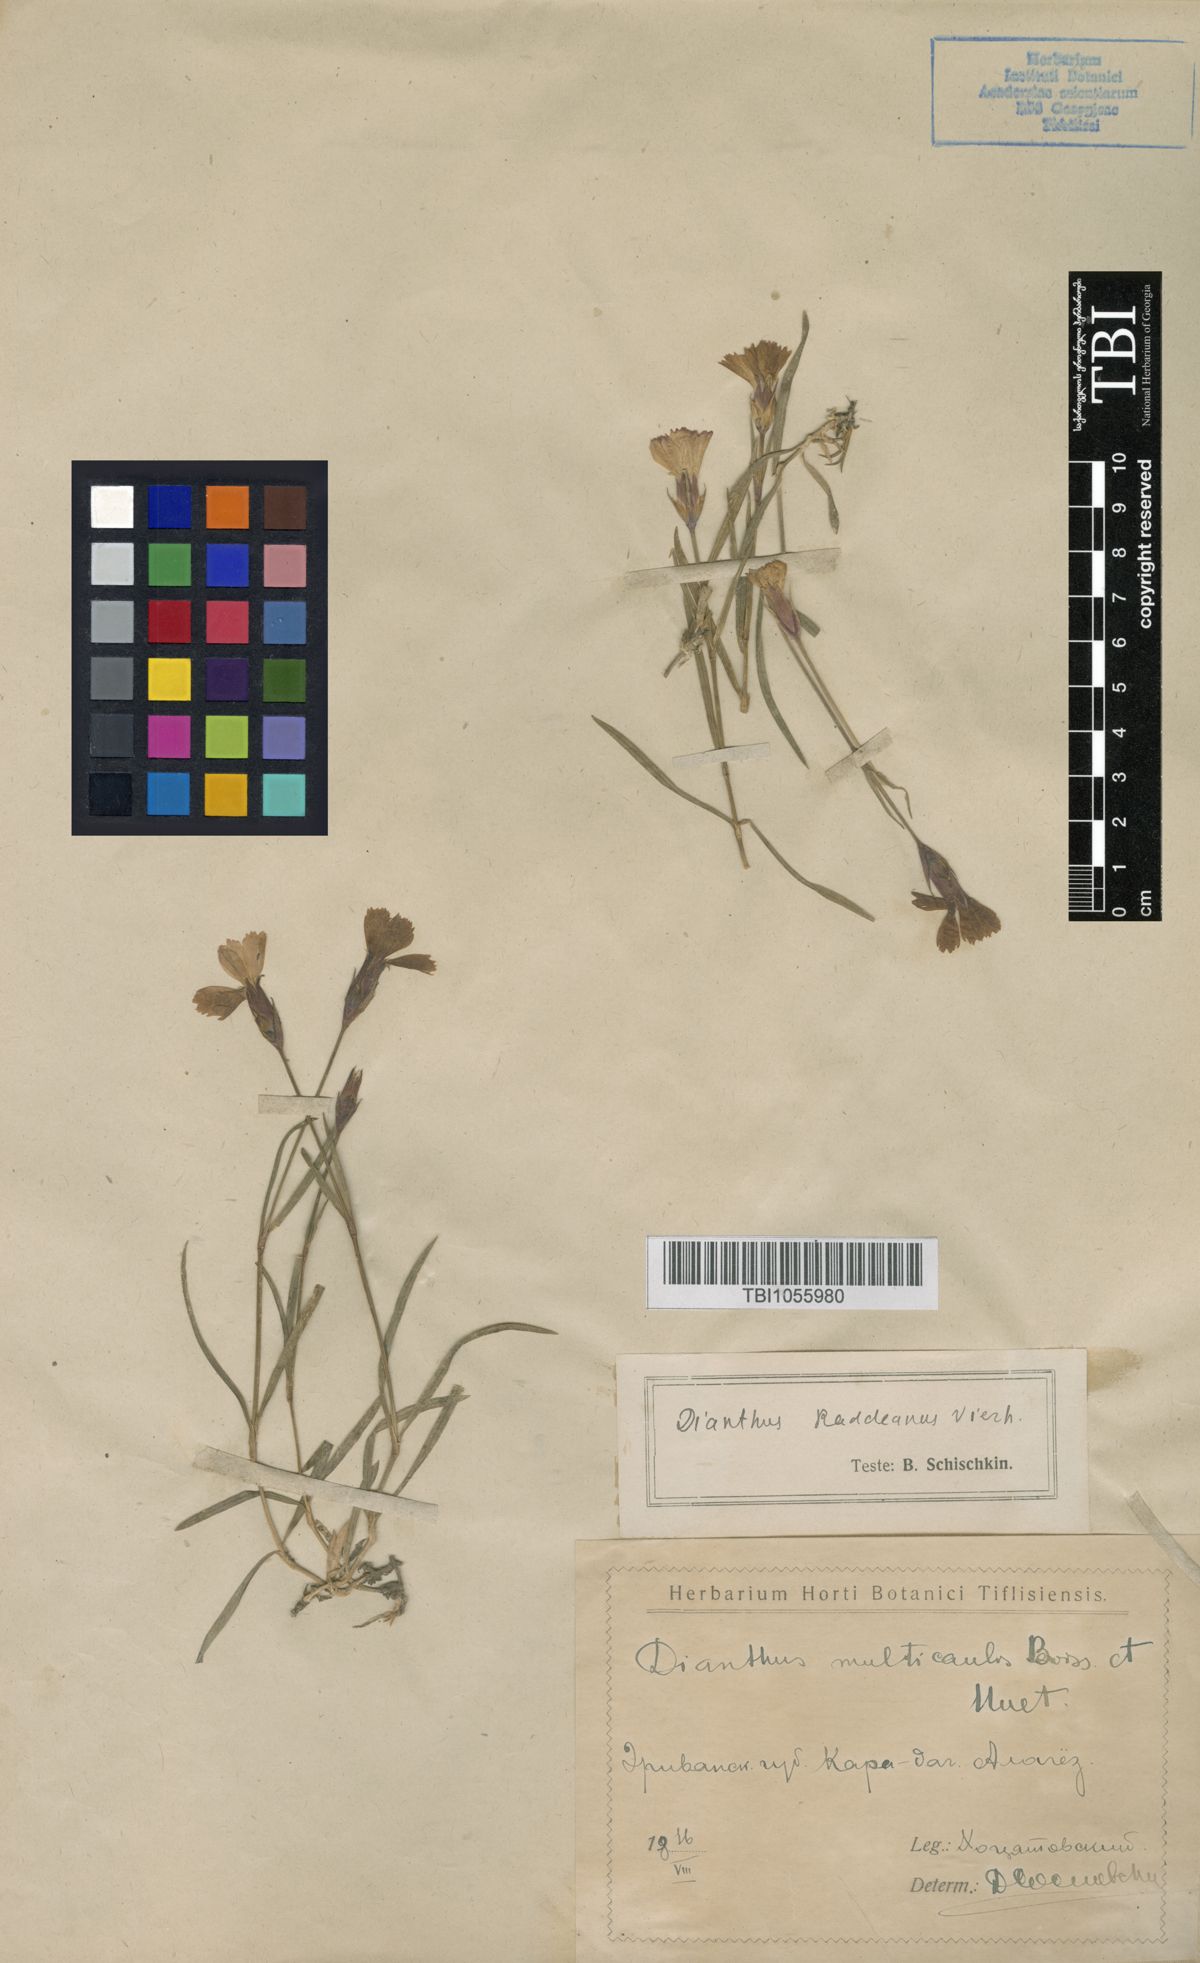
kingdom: Plantae
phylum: Tracheophyta
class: Magnoliopsida
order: Caryophyllales
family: Caryophyllaceae
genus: Dianthus
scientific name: Dianthus raddeanus
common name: Radde's pink
